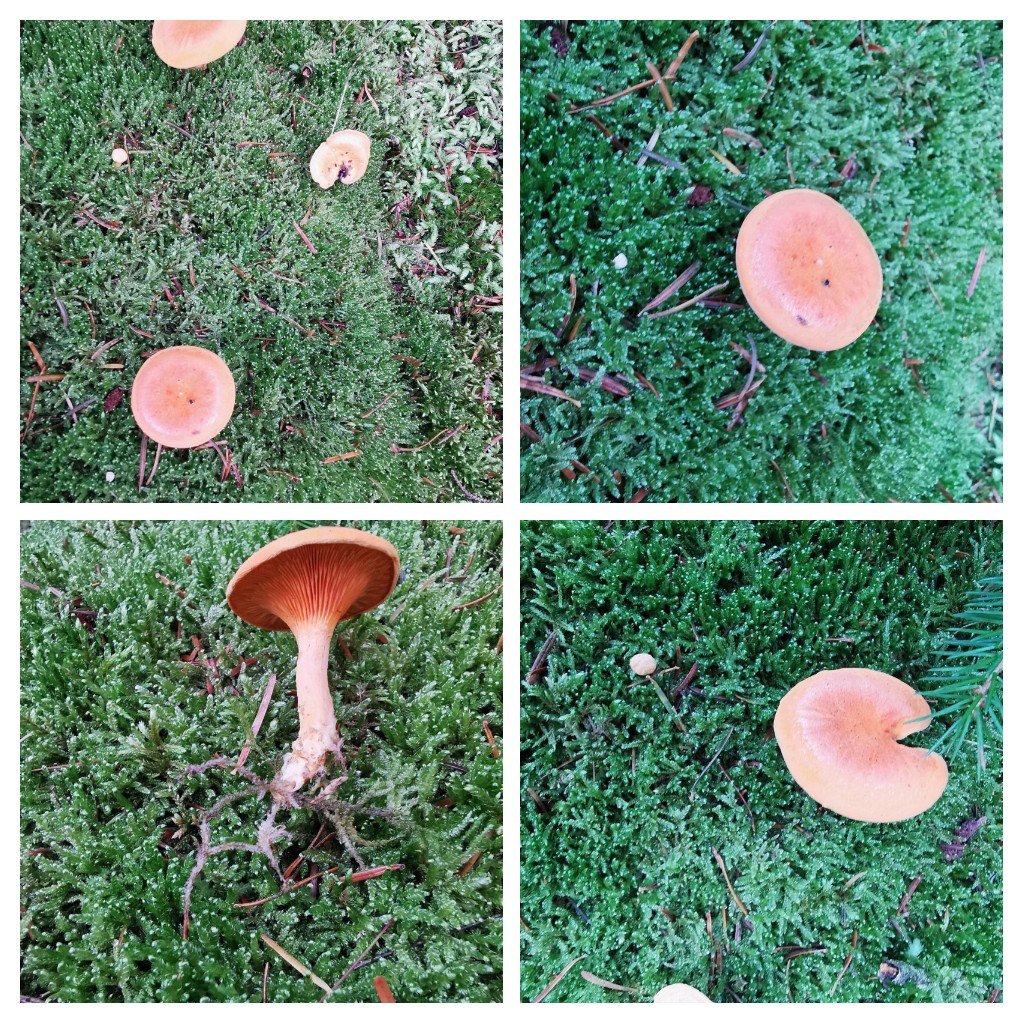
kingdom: Fungi
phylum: Basidiomycota
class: Agaricomycetes
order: Boletales
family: Hygrophoropsidaceae
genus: Hygrophoropsis
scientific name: Hygrophoropsis aurantiaca
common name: almindelig orangekantarel
